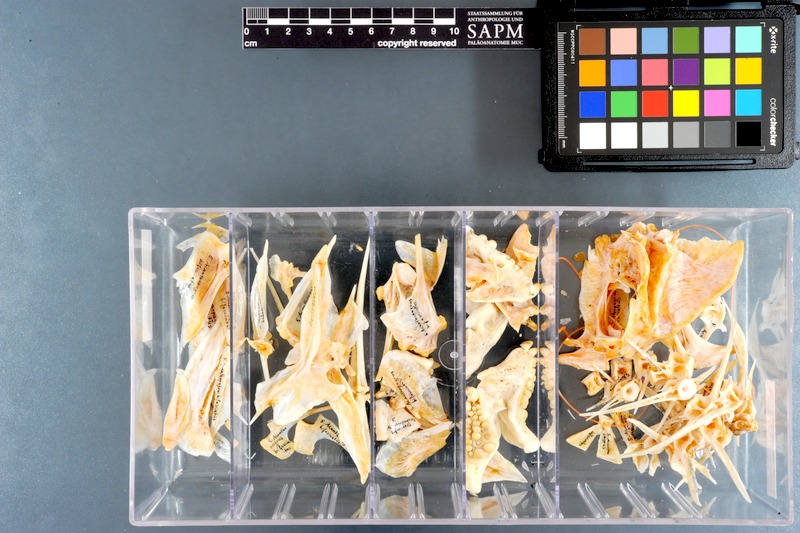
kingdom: Animalia
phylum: Chordata
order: Perciformes
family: Sparidae
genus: Acanthopagrus
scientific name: Acanthopagrus bifasciatus
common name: Twobar seabream
